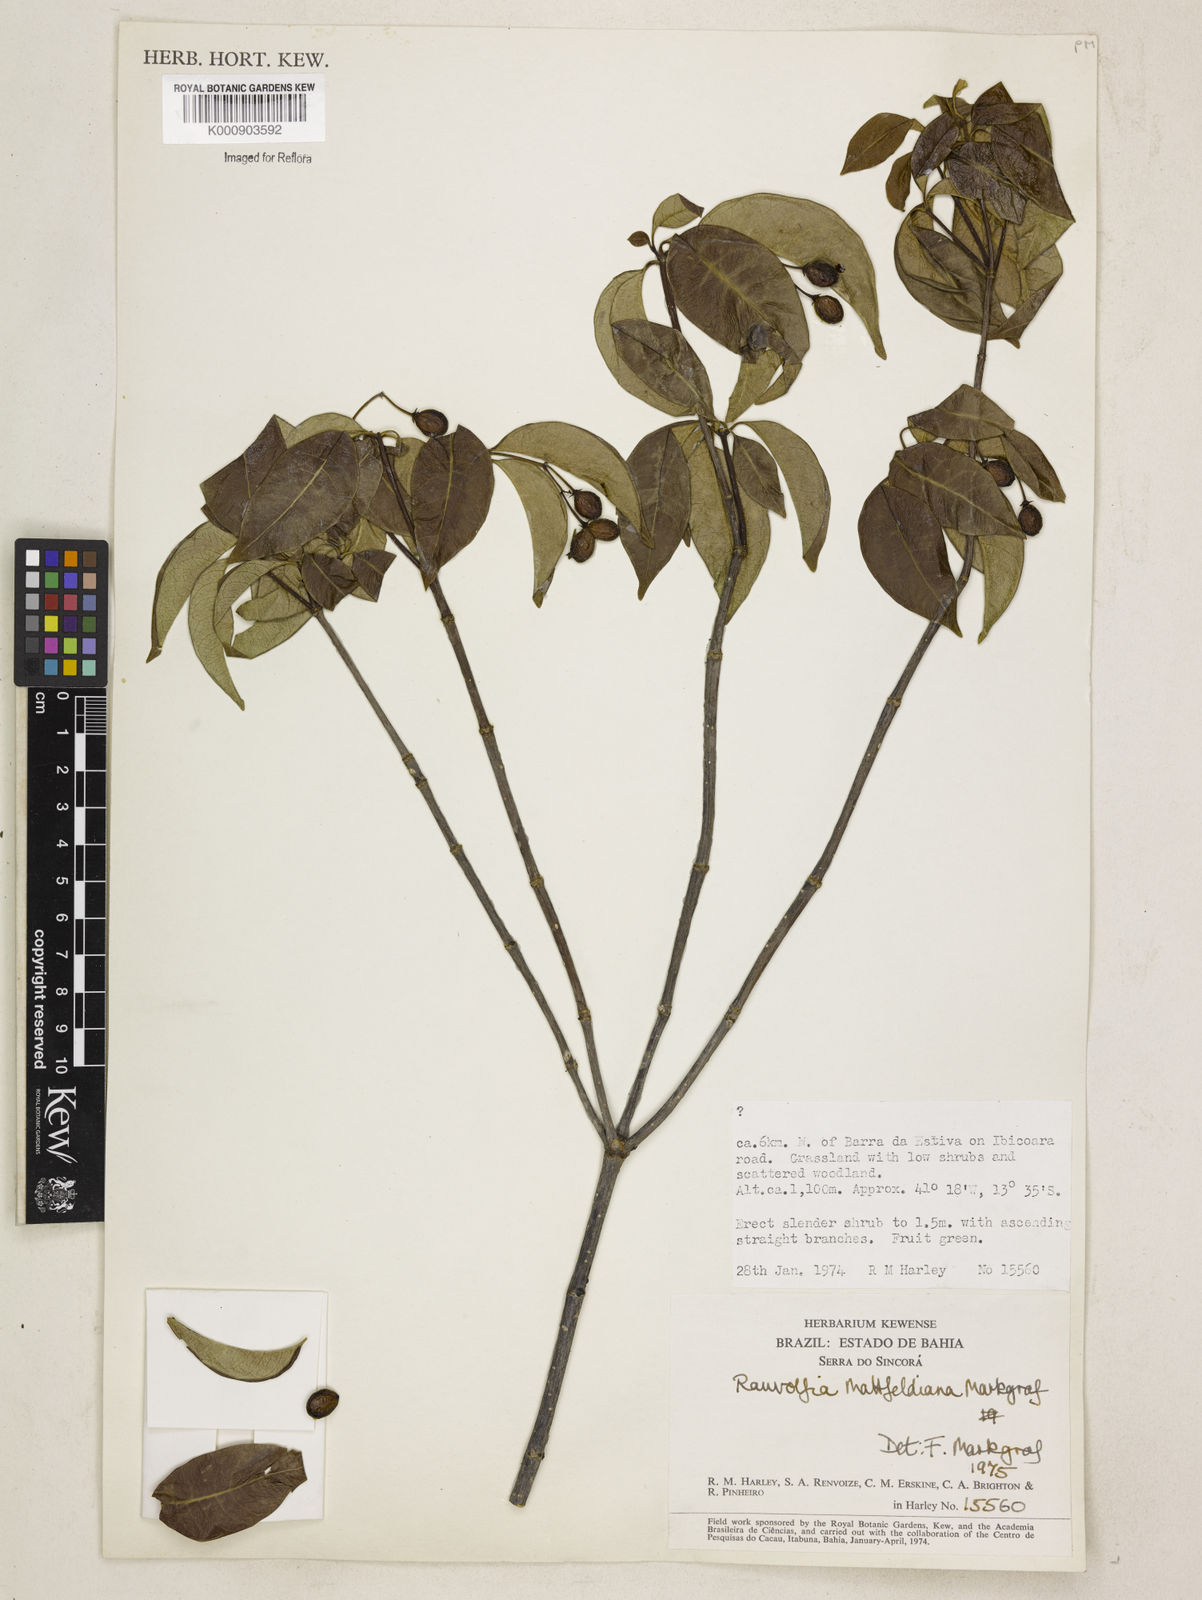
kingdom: Plantae
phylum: Tracheophyta
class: Magnoliopsida
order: Gentianales
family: Apocynaceae
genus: Rauvolfia
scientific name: Rauvolfia mattfeldiana
